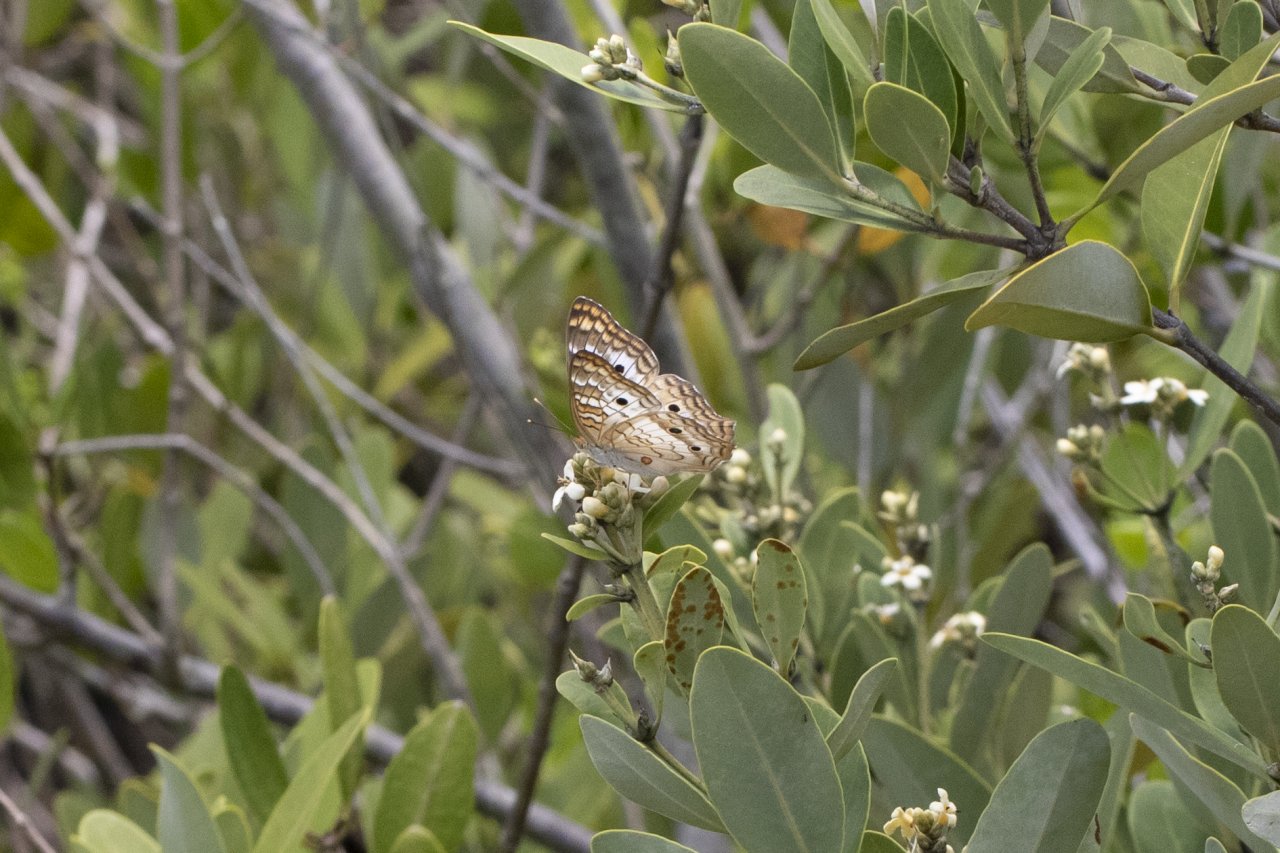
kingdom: Animalia
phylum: Arthropoda
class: Insecta
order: Lepidoptera
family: Nymphalidae
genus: Anartia
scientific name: Anartia jatrophae
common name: White Peacock
